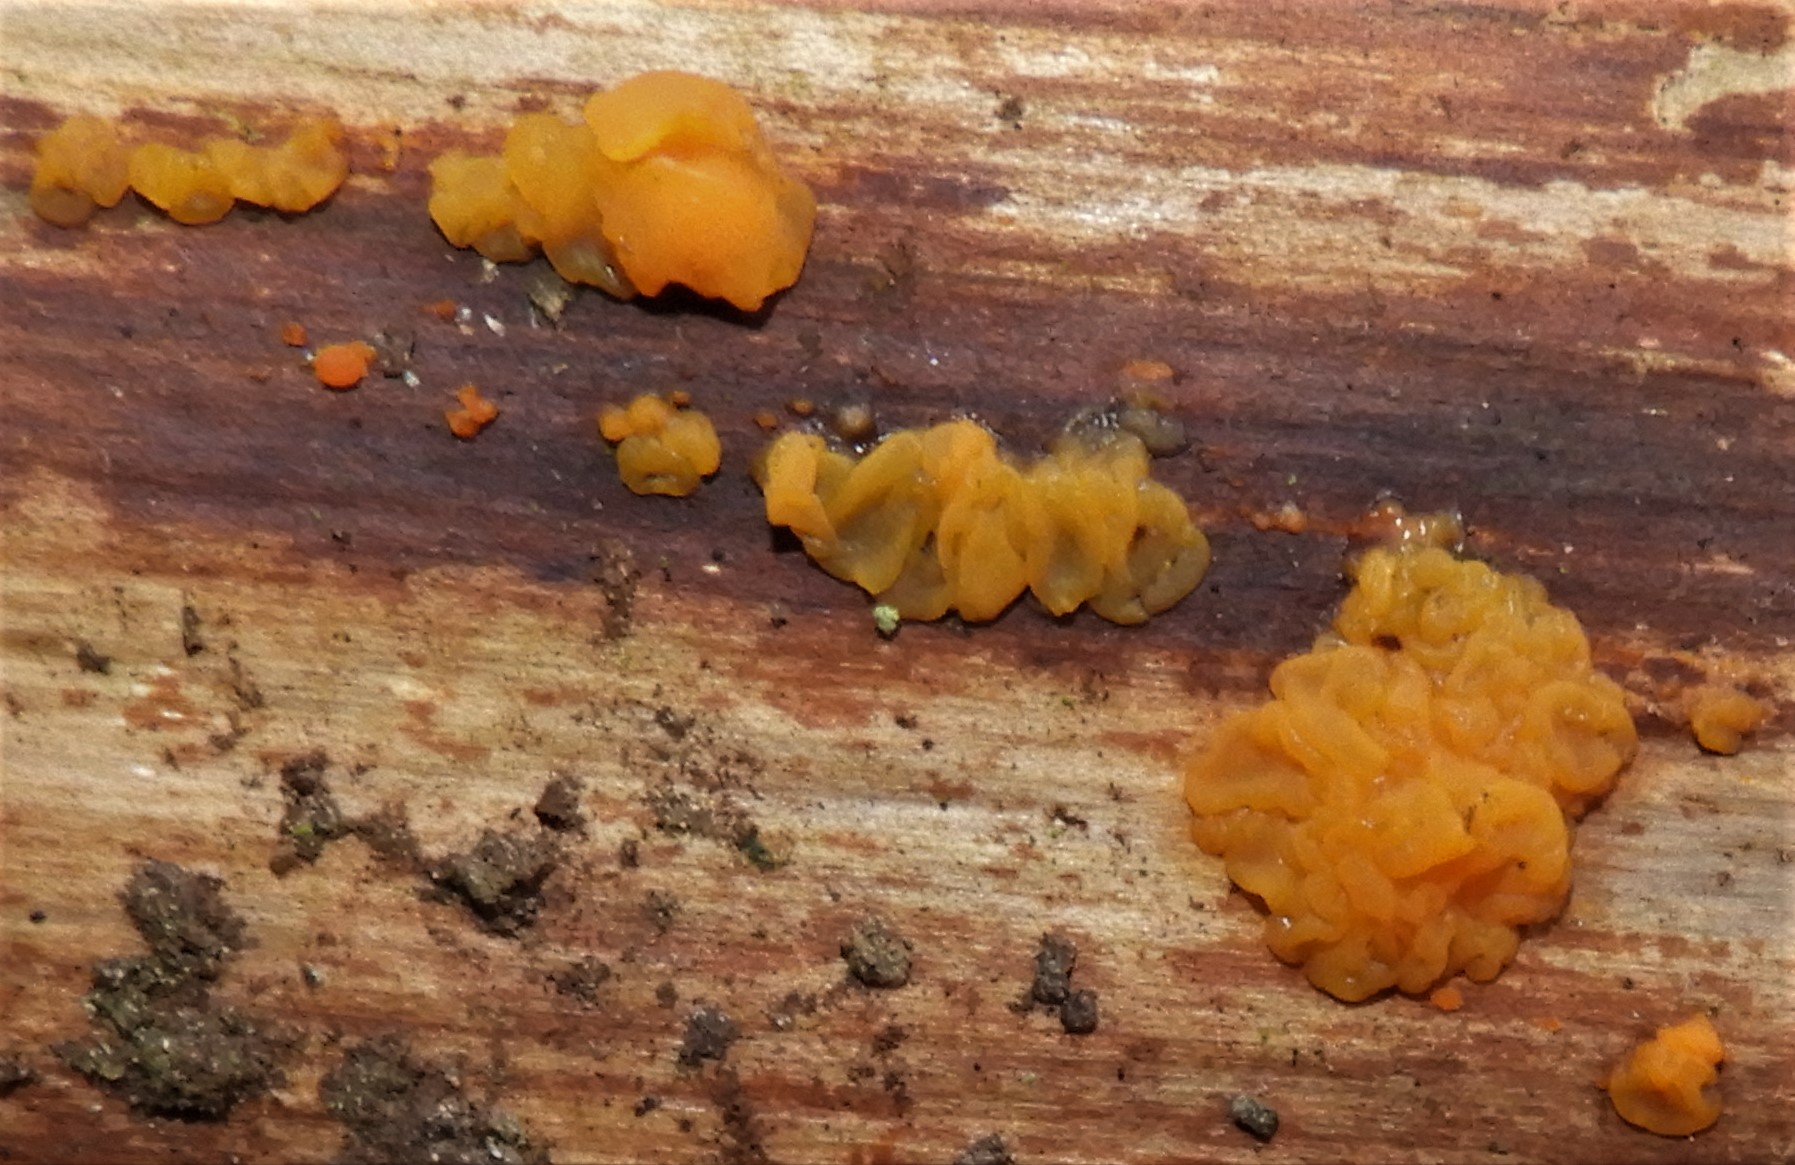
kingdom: Fungi
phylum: Basidiomycota
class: Dacrymycetes
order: Dacrymycetales
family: Dacrymycetaceae
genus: Dacrymyces
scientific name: Dacrymyces stillatus
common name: almindelig tåresvamp
